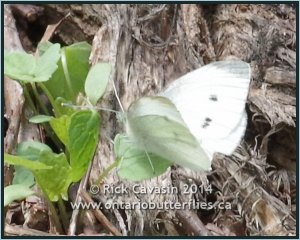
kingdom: Animalia
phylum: Arthropoda
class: Insecta
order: Lepidoptera
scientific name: Lepidoptera
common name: Butterflies
